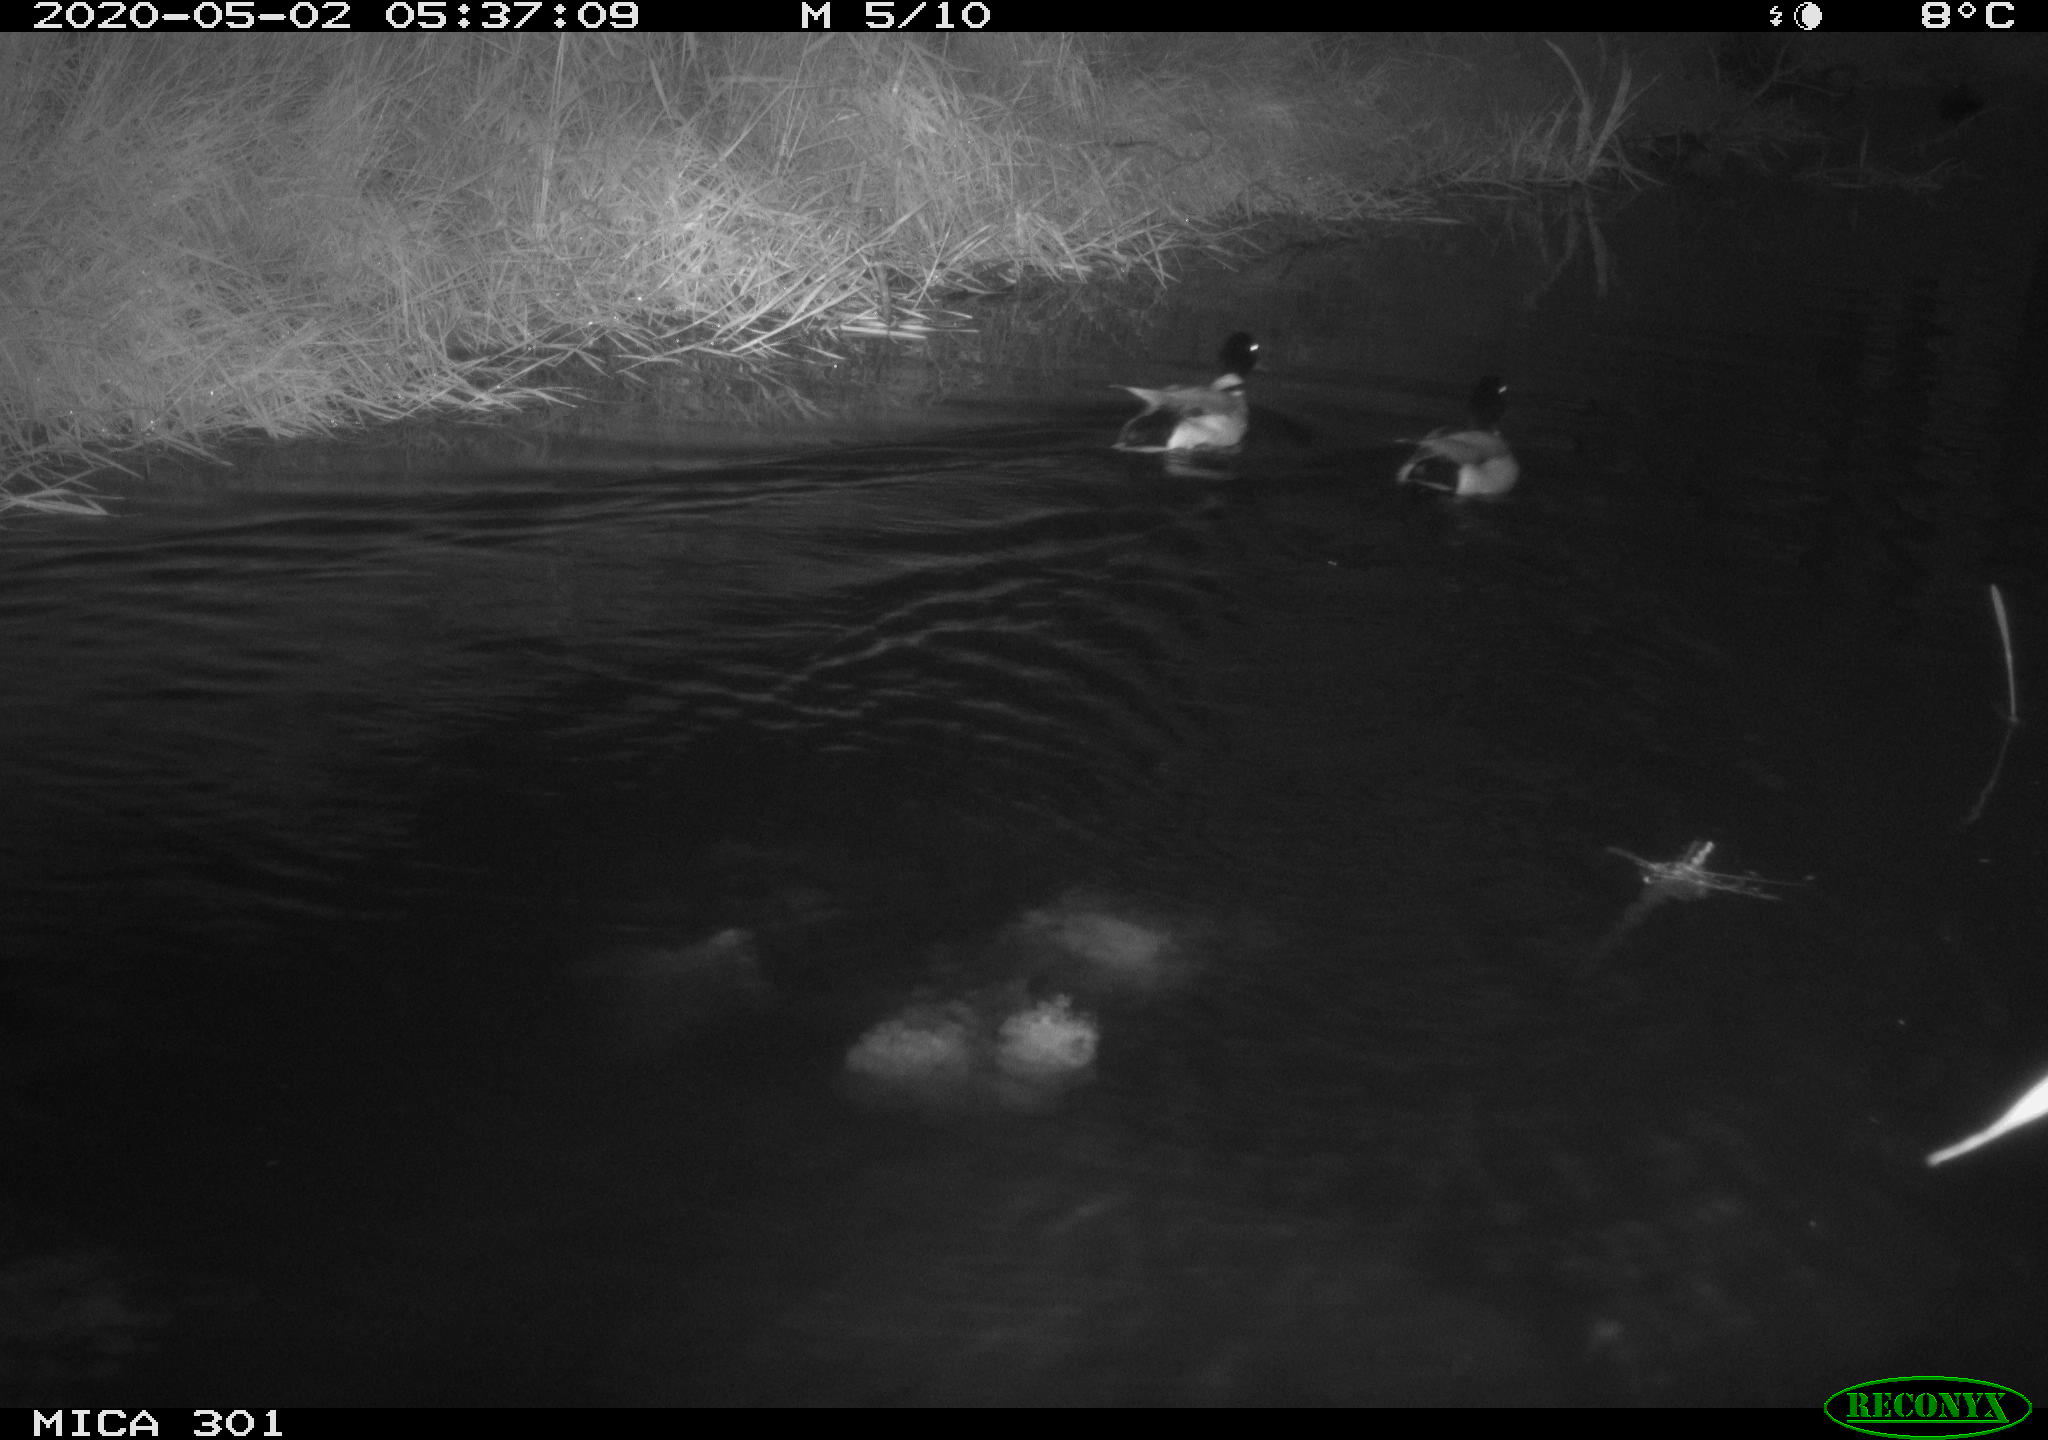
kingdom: Animalia
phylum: Chordata
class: Aves
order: Anseriformes
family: Anatidae
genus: Anas
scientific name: Anas platyrhynchos
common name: Mallard
